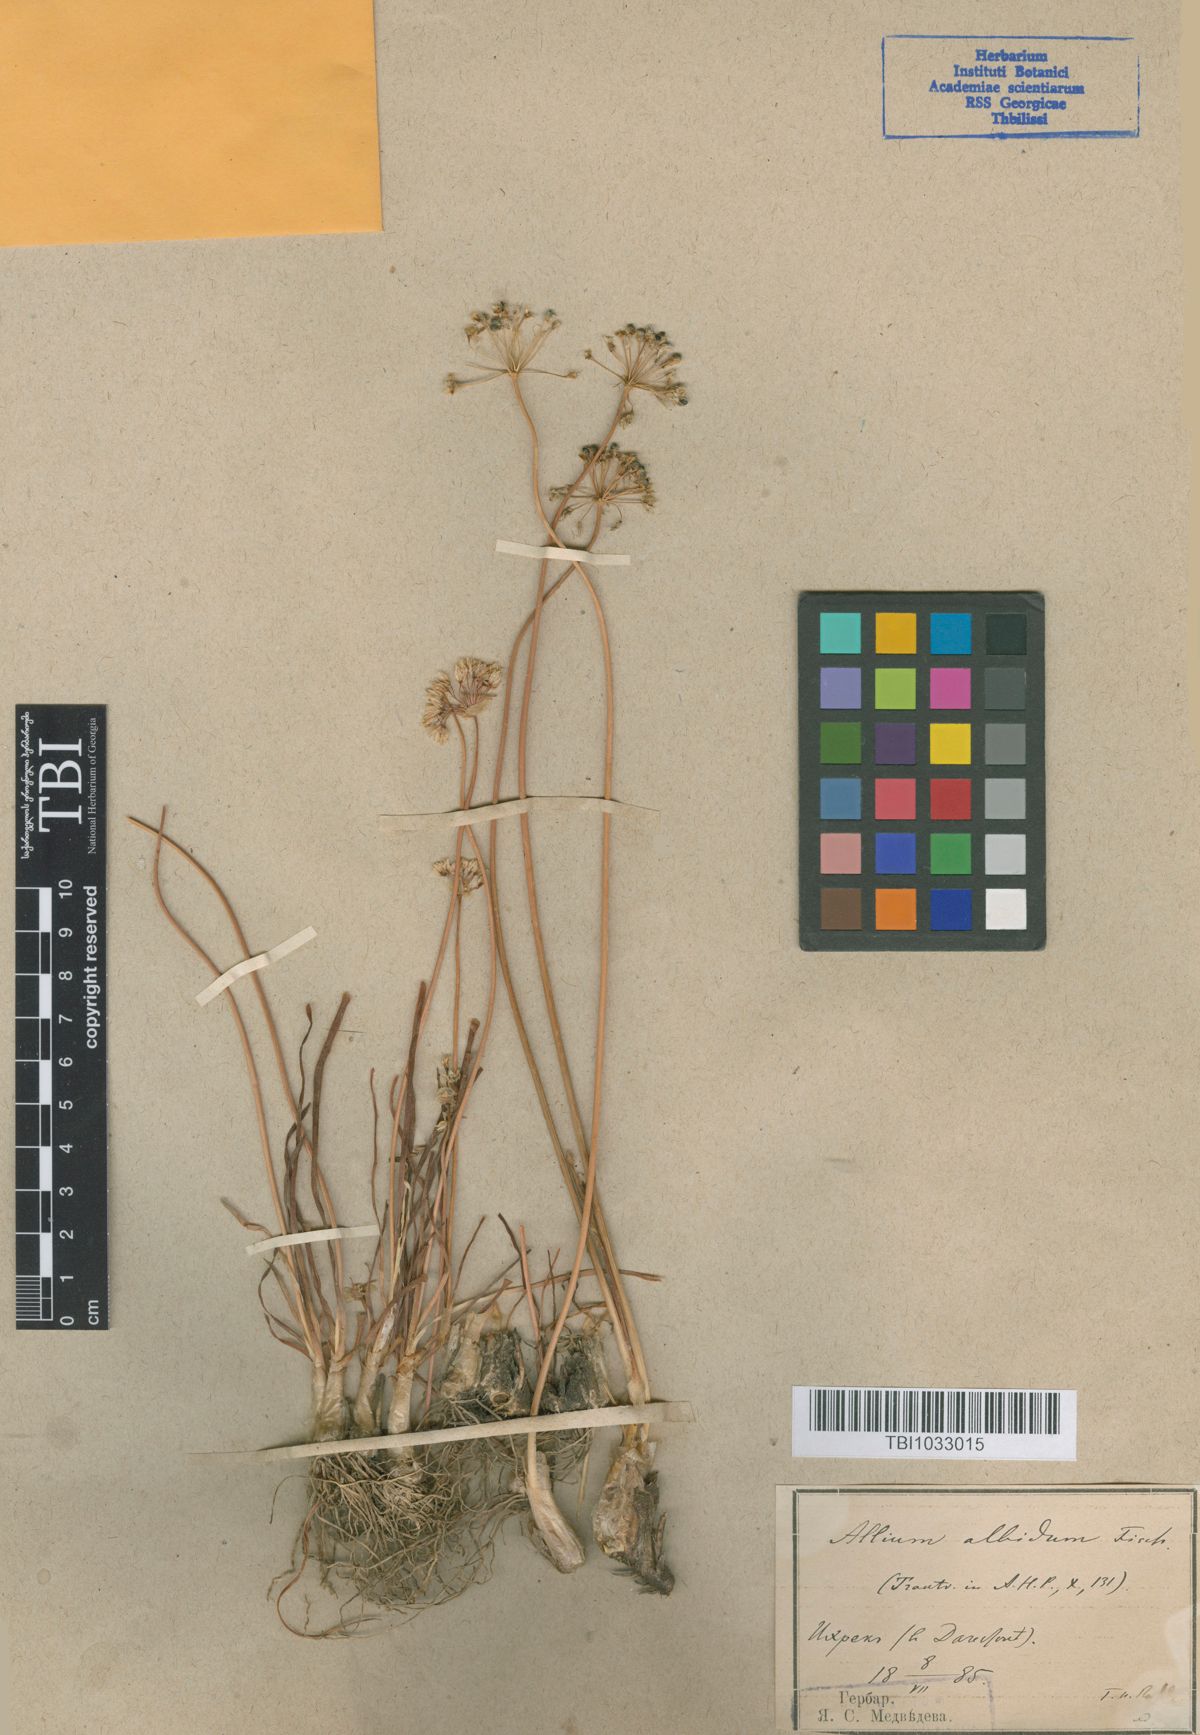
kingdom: Plantae
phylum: Tracheophyta
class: Liliopsida
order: Asparagales
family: Amaryllidaceae
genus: Allium
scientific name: Allium denudatum
